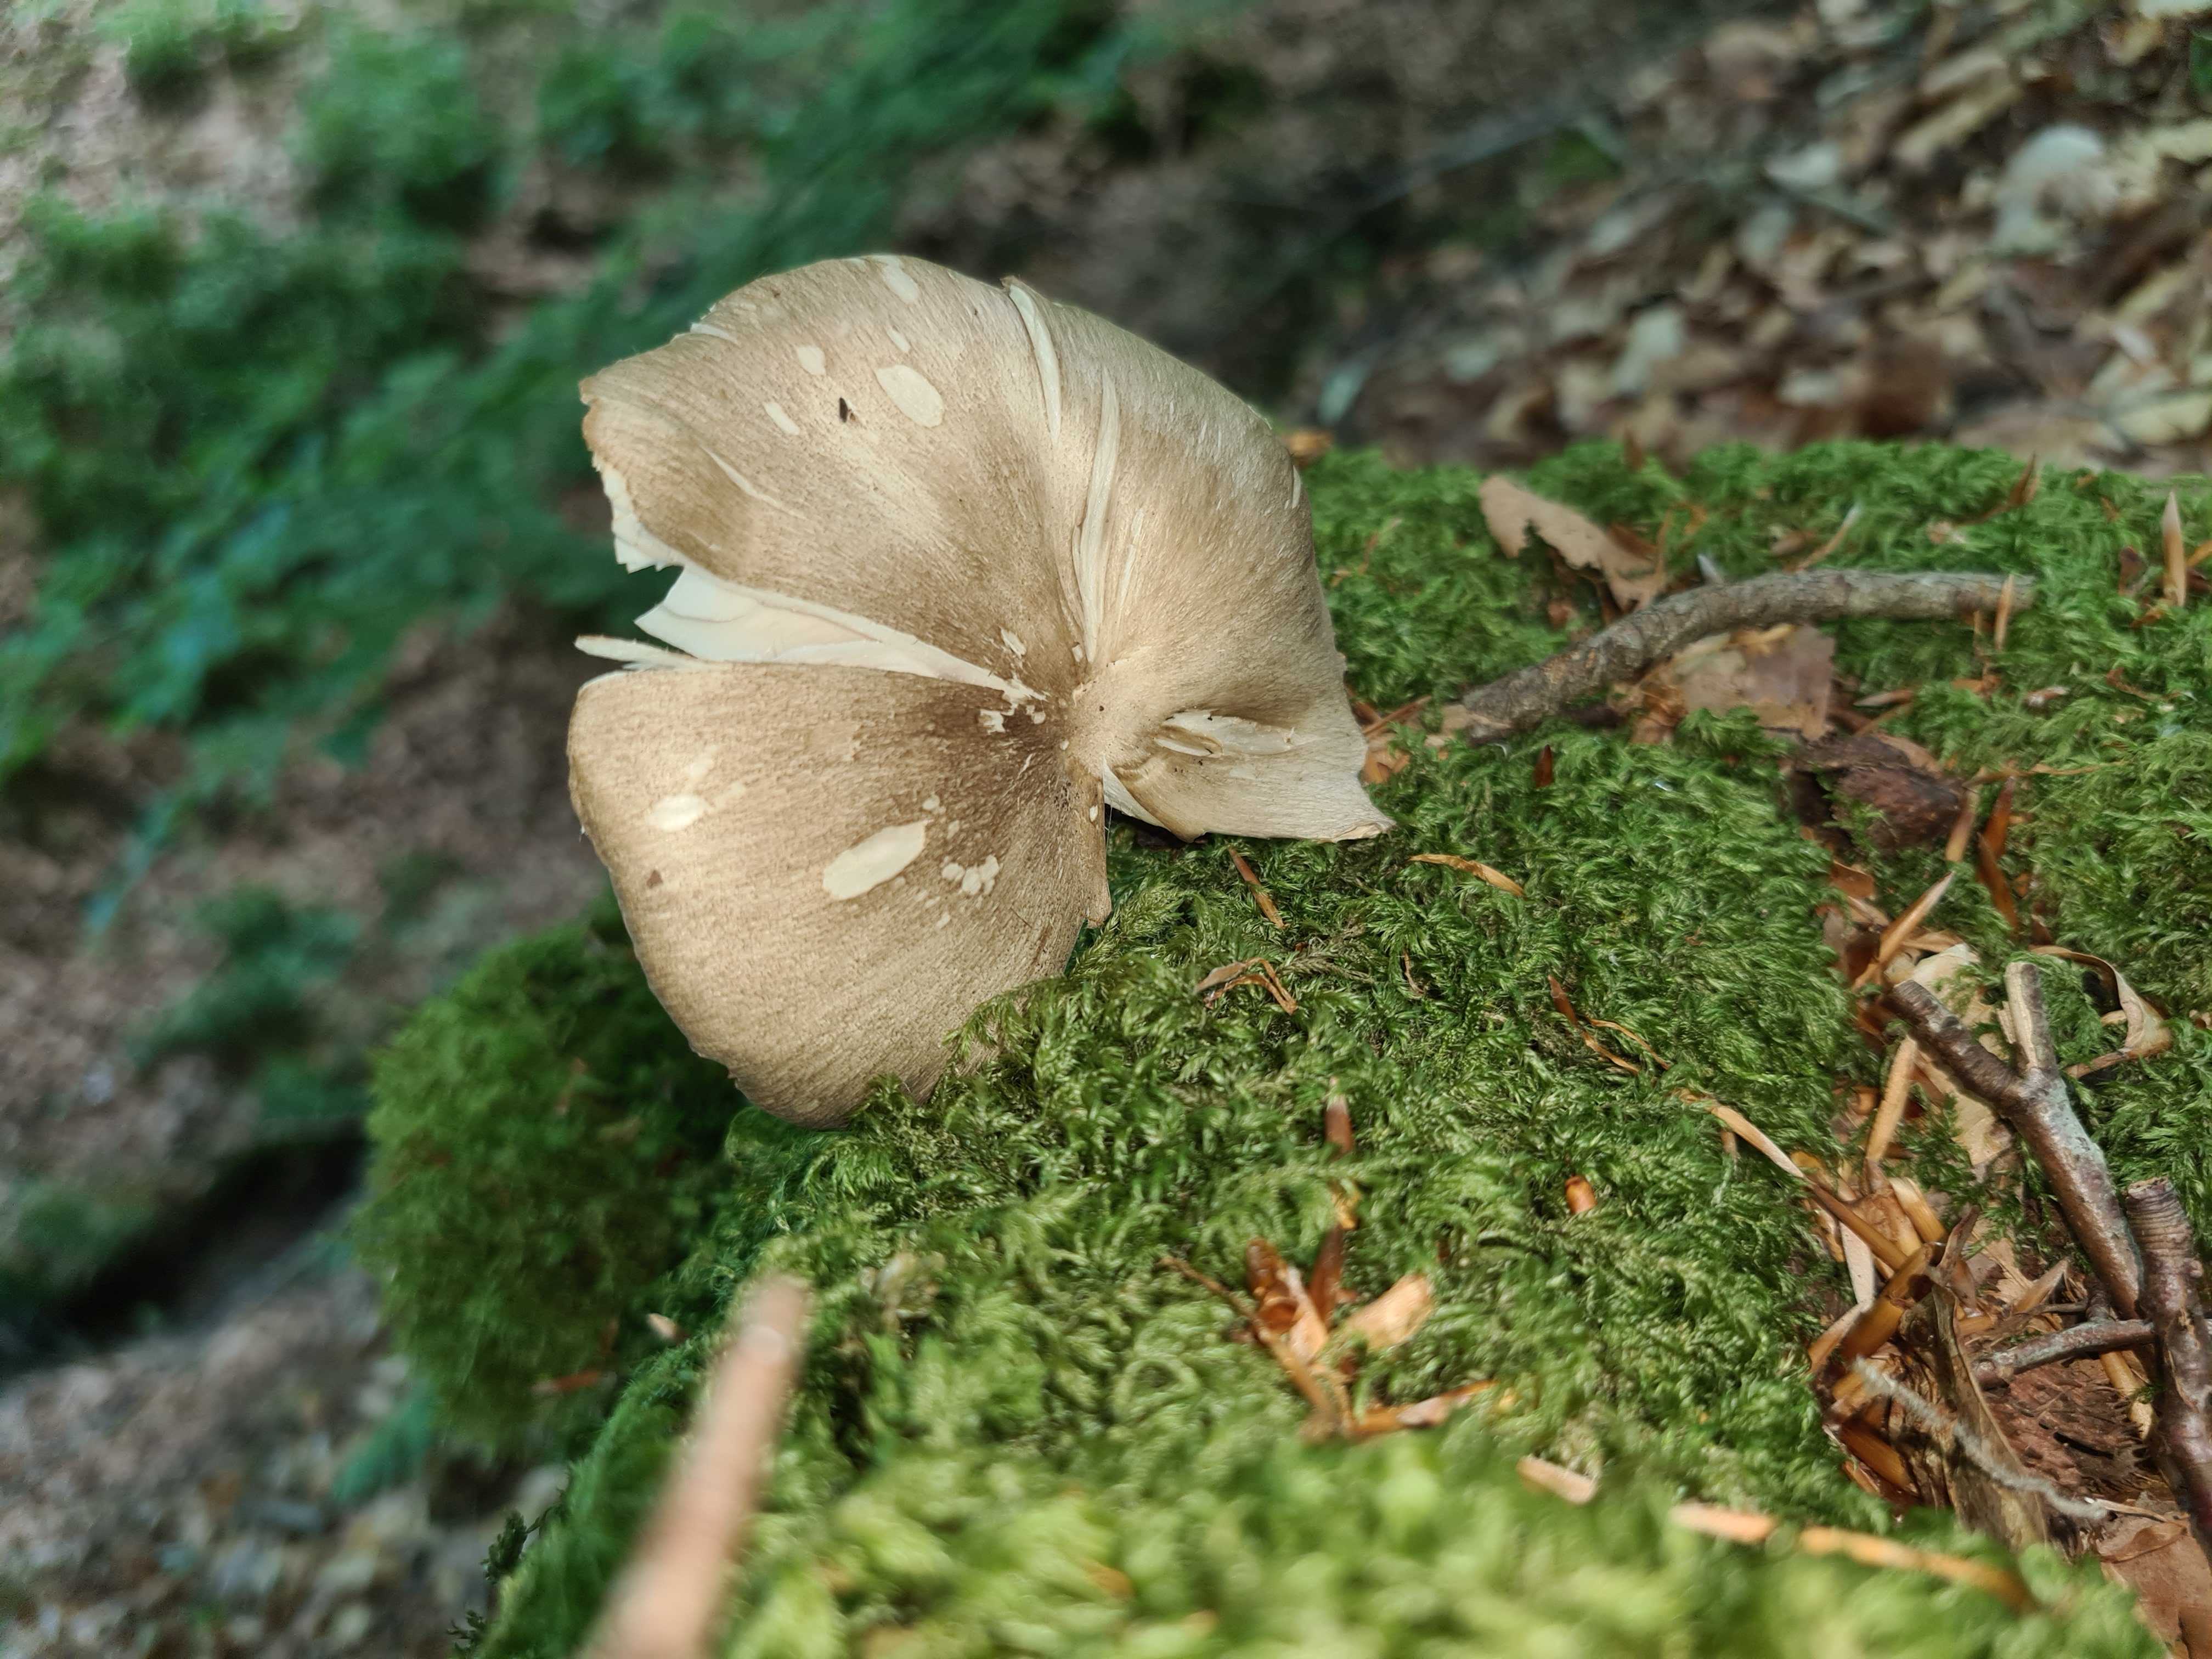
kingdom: Fungi
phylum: Basidiomycota
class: Agaricomycetes
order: Agaricales
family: Tricholomataceae
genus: Megacollybia
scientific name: Megacollybia platyphylla
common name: bredbladet væbnerhat
